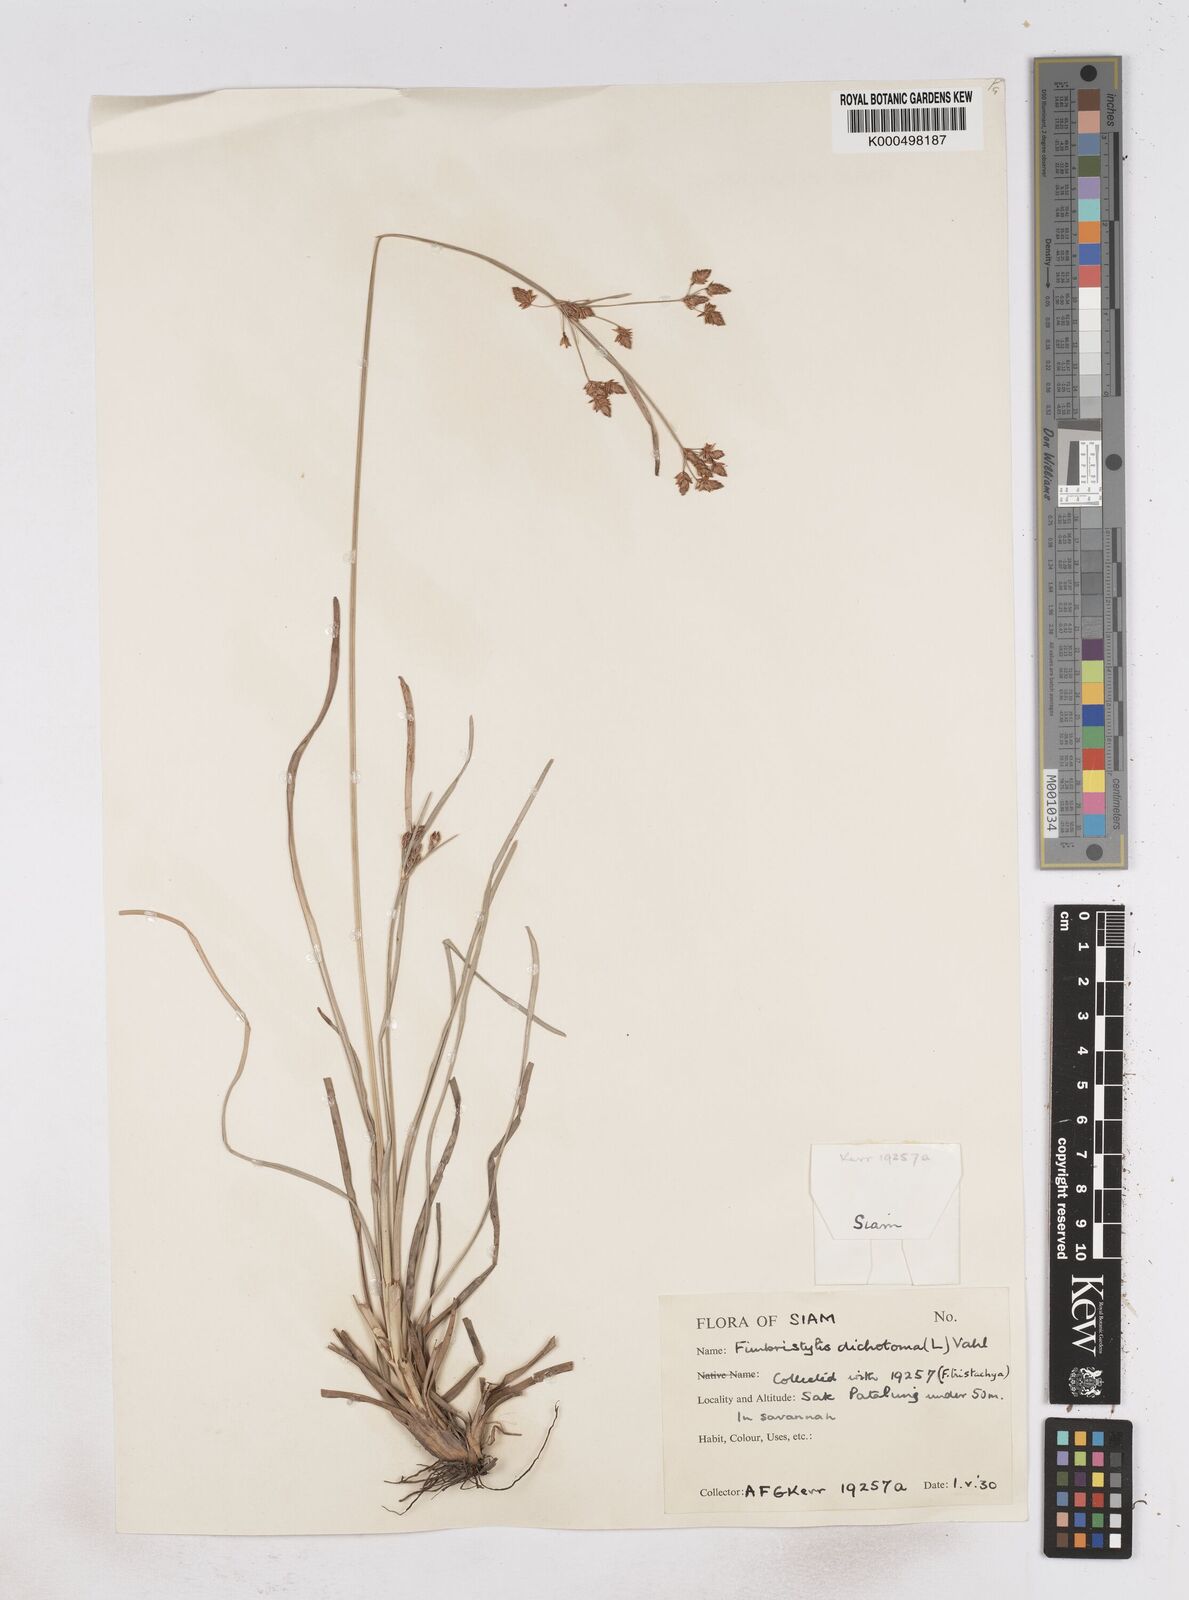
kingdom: Plantae
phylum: Tracheophyta
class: Liliopsida
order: Poales
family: Cyperaceae
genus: Fimbristylis
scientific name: Fimbristylis dichotoma
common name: Forked fimbry
